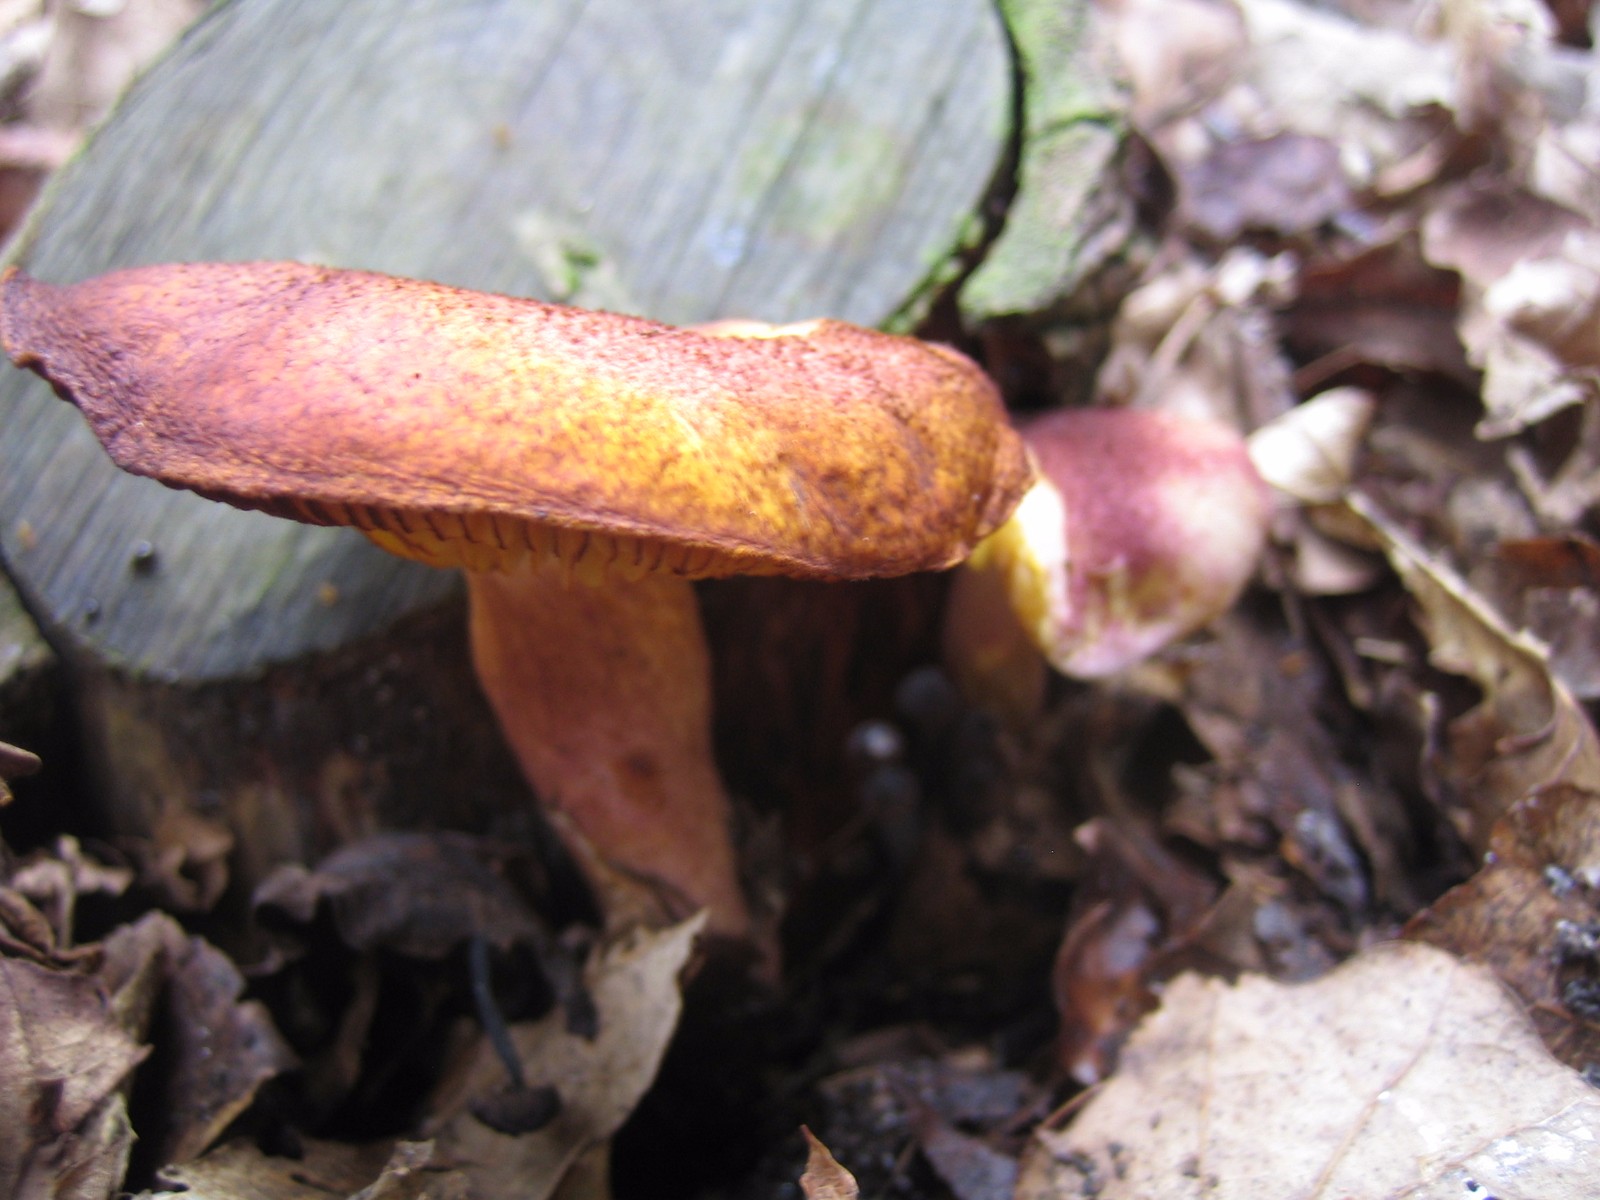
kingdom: Fungi
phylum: Basidiomycota
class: Agaricomycetes
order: Agaricales
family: Tricholomataceae
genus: Tricholomopsis
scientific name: Tricholomopsis rutilans
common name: purpur-væbnerhat
